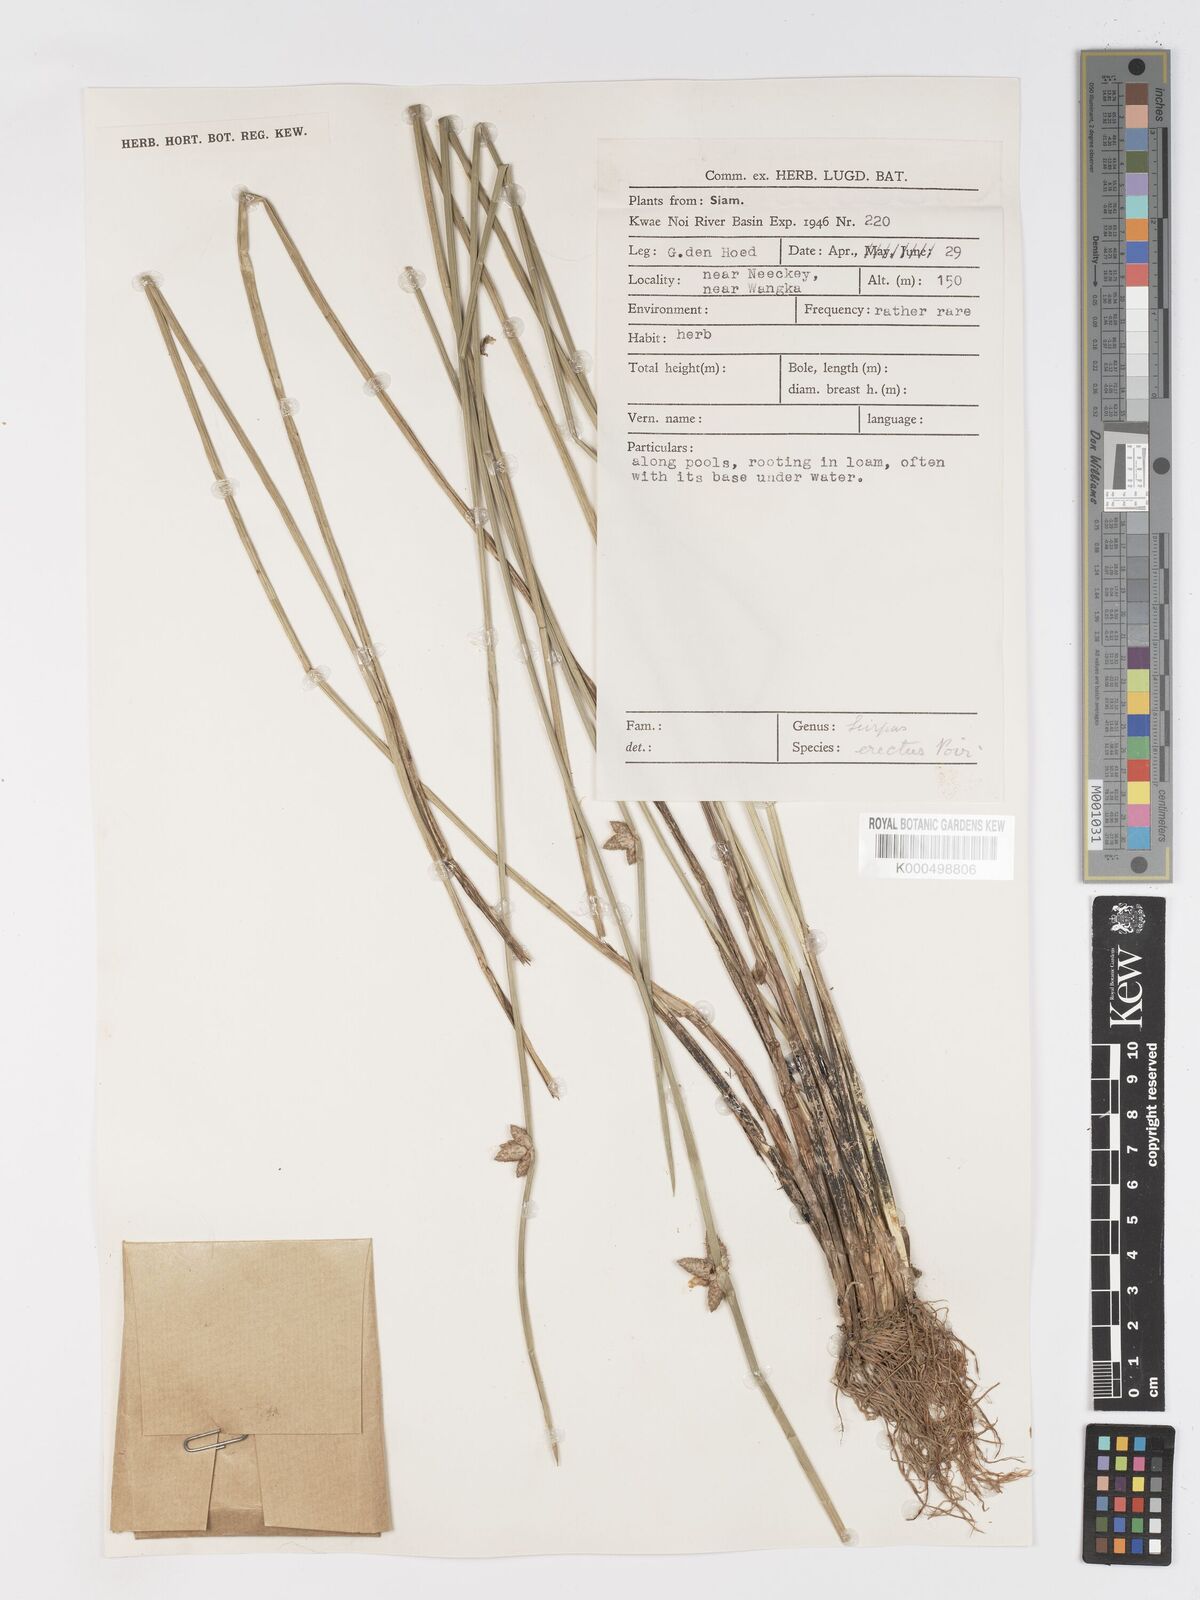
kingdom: Plantae
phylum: Tracheophyta
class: Liliopsida
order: Poales
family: Cyperaceae
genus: Schoenoplectiella
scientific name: Schoenoplectiella juncoides
